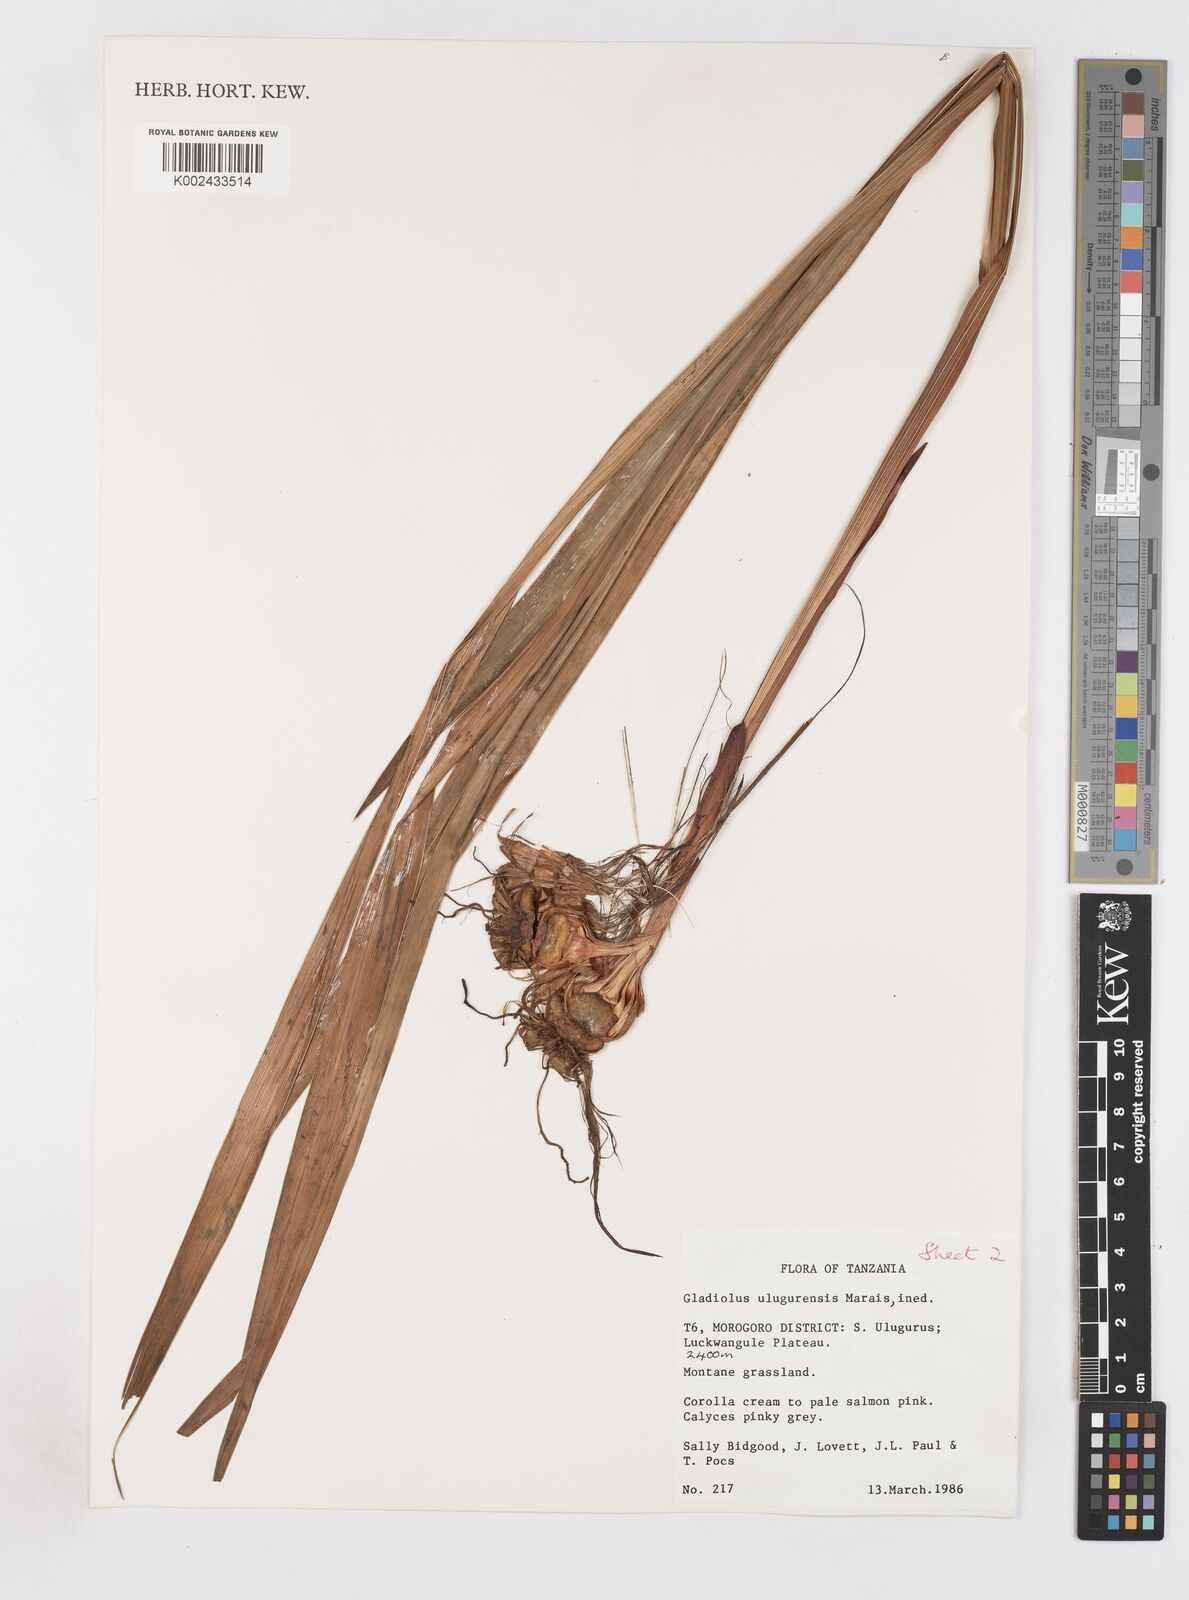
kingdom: Plantae
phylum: Tracheophyta
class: Liliopsida
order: Asparagales
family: Iridaceae
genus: Gladiolus
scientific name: Gladiolus dalenii
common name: Cornflag
